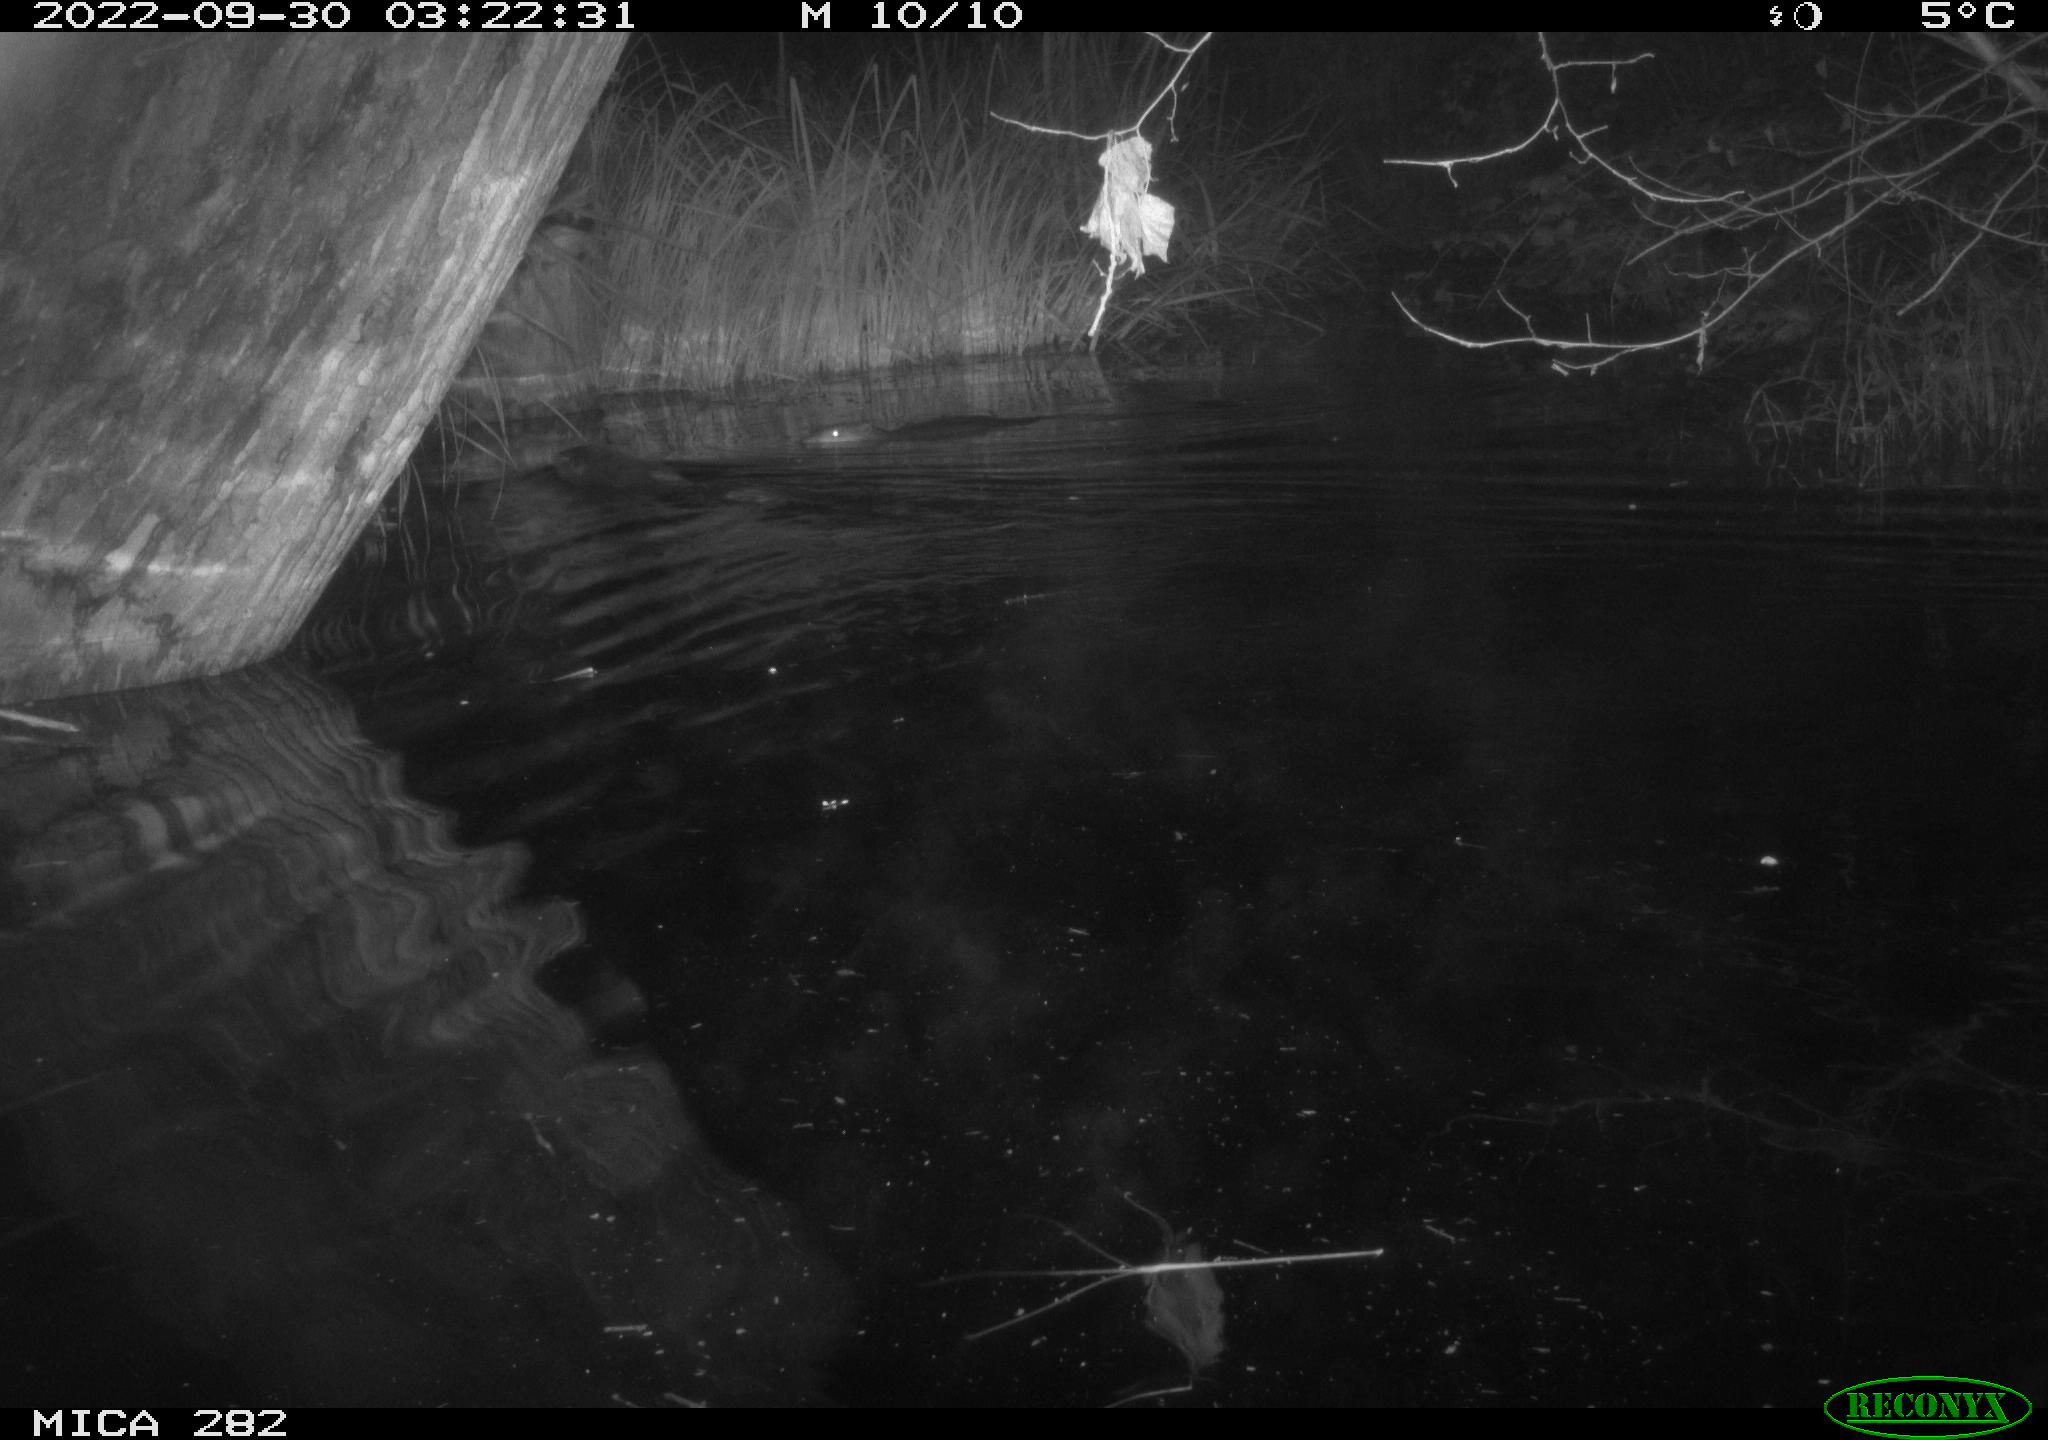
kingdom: Animalia
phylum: Chordata
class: Mammalia
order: Rodentia
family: Castoridae
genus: Castor
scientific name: Castor fiber
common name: Eurasian beaver
